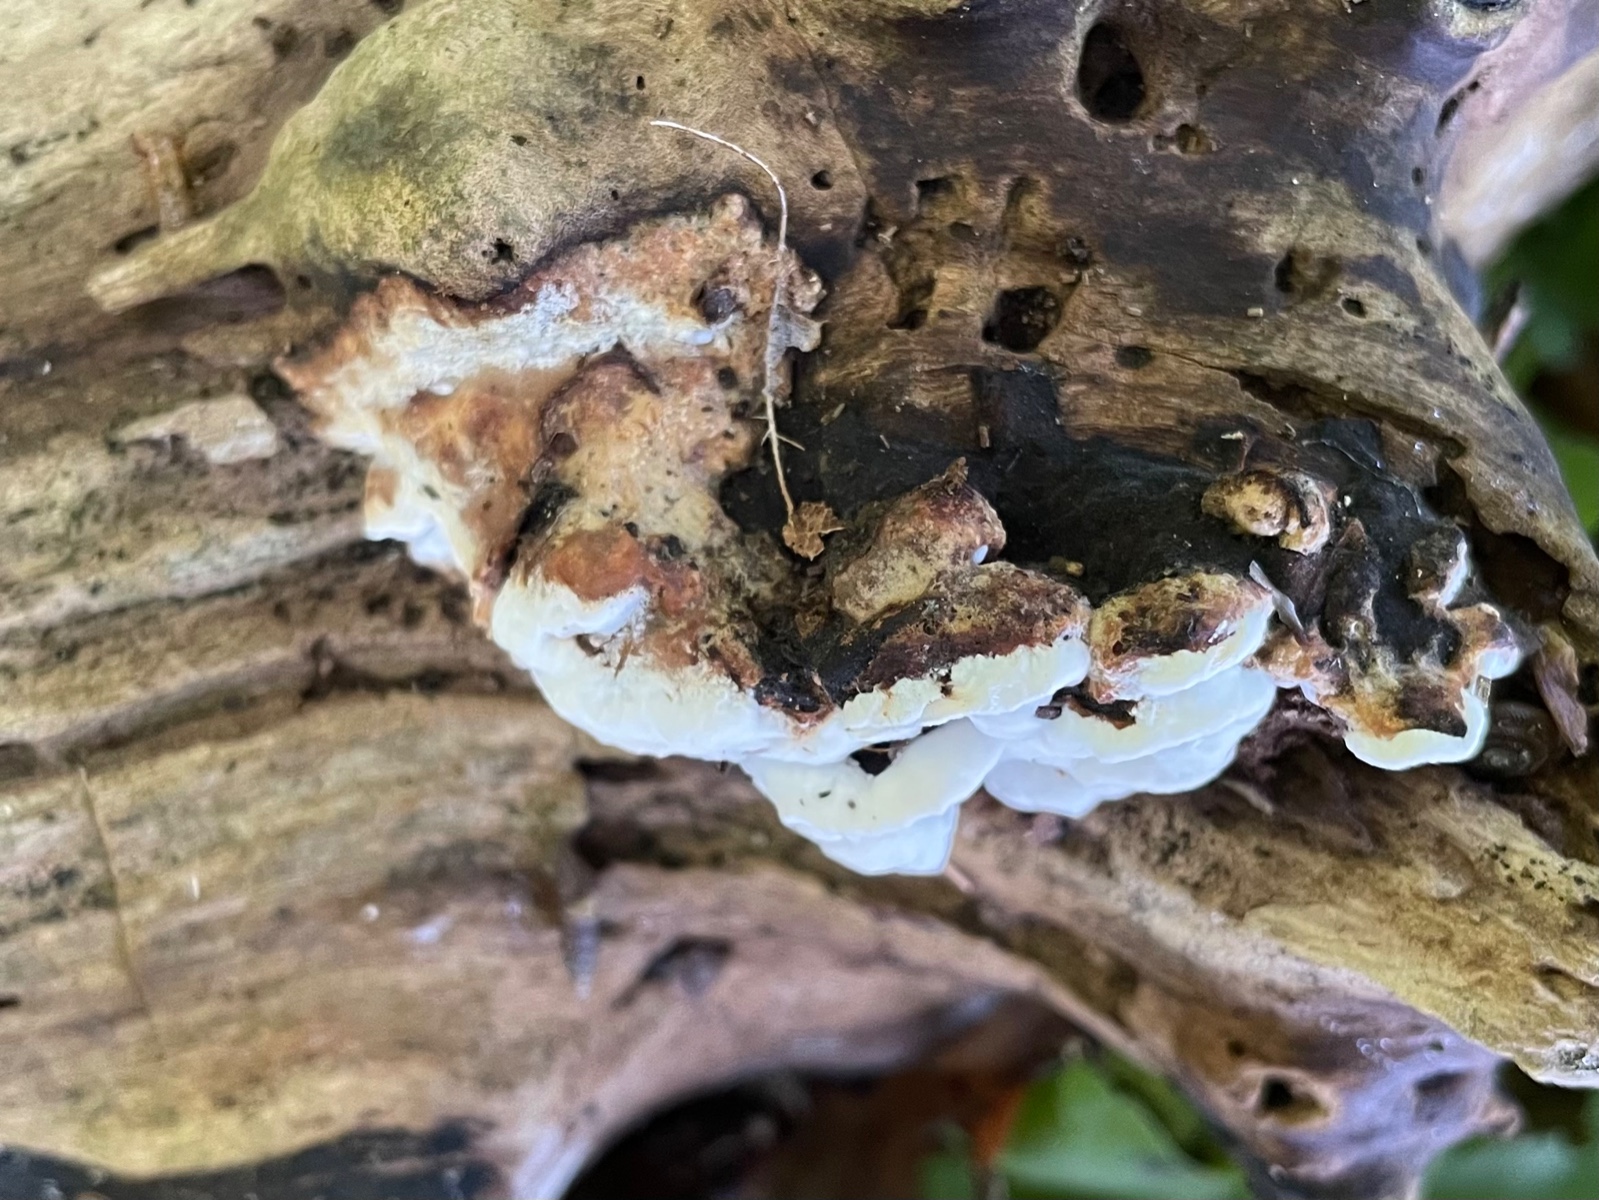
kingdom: Fungi
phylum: Basidiomycota
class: Agaricomycetes
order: Polyporales
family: Incrustoporiaceae
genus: Skeletocutis
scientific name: Skeletocutis nemoralis
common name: stor krystalporesvamp
